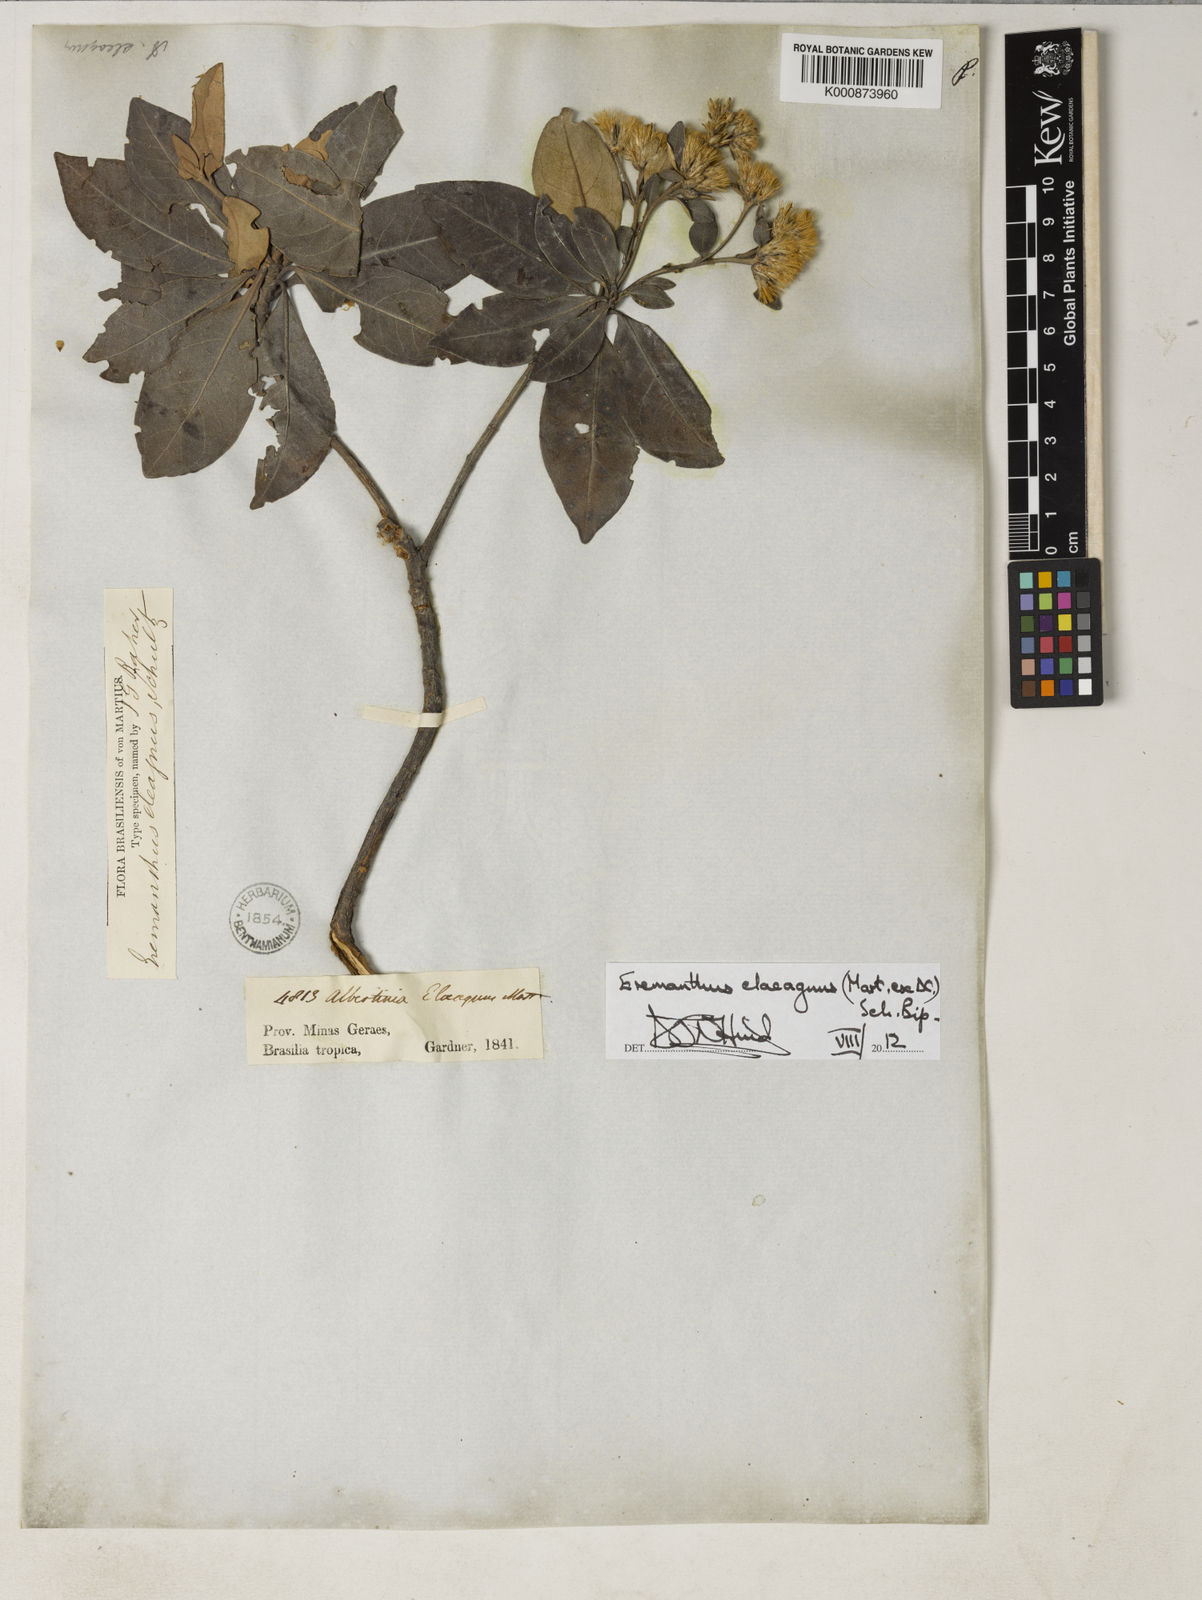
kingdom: Plantae
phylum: Tracheophyta
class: Magnoliopsida
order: Asterales
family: Asteraceae
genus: Eremanthus
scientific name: Eremanthus elaeagnus
